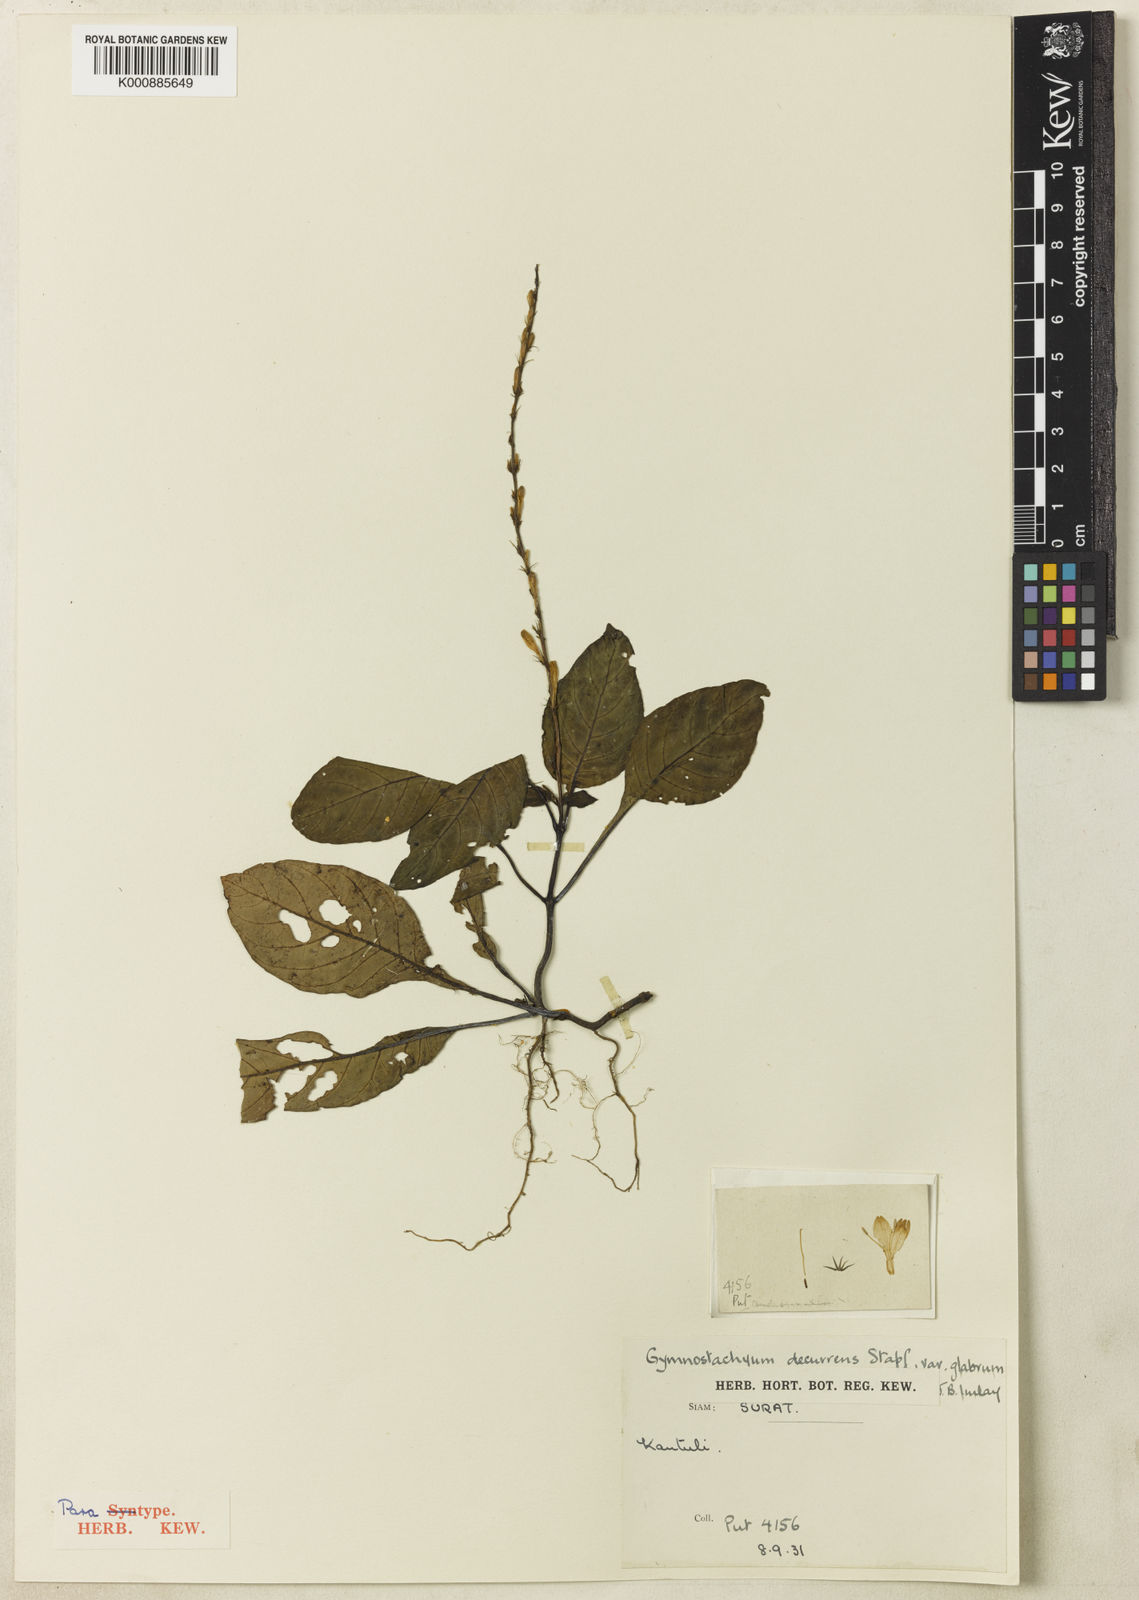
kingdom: Plantae
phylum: Tracheophyta
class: Magnoliopsida
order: Lamiales
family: Acanthaceae
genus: Gymnostachyum
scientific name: Gymnostachyum leptostachyum
